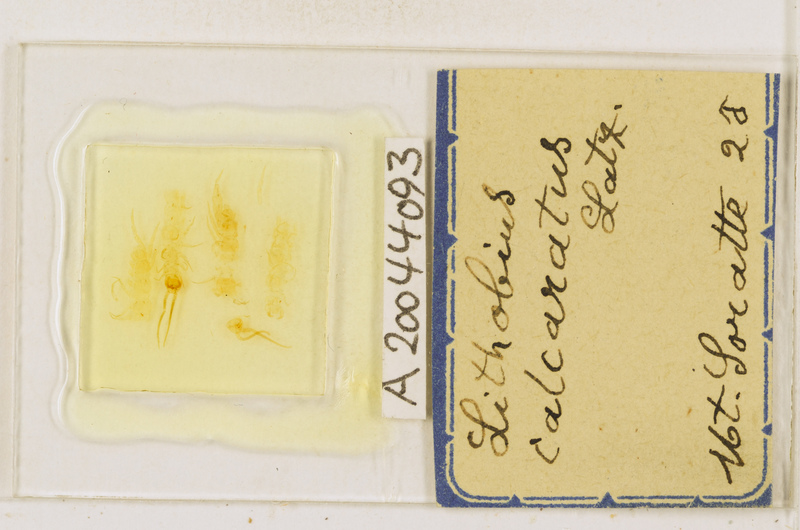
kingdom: Animalia
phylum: Arthropoda
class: Chilopoda
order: Lithobiomorpha
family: Lithobiidae
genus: Lithobius
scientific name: Lithobius calcaratus
